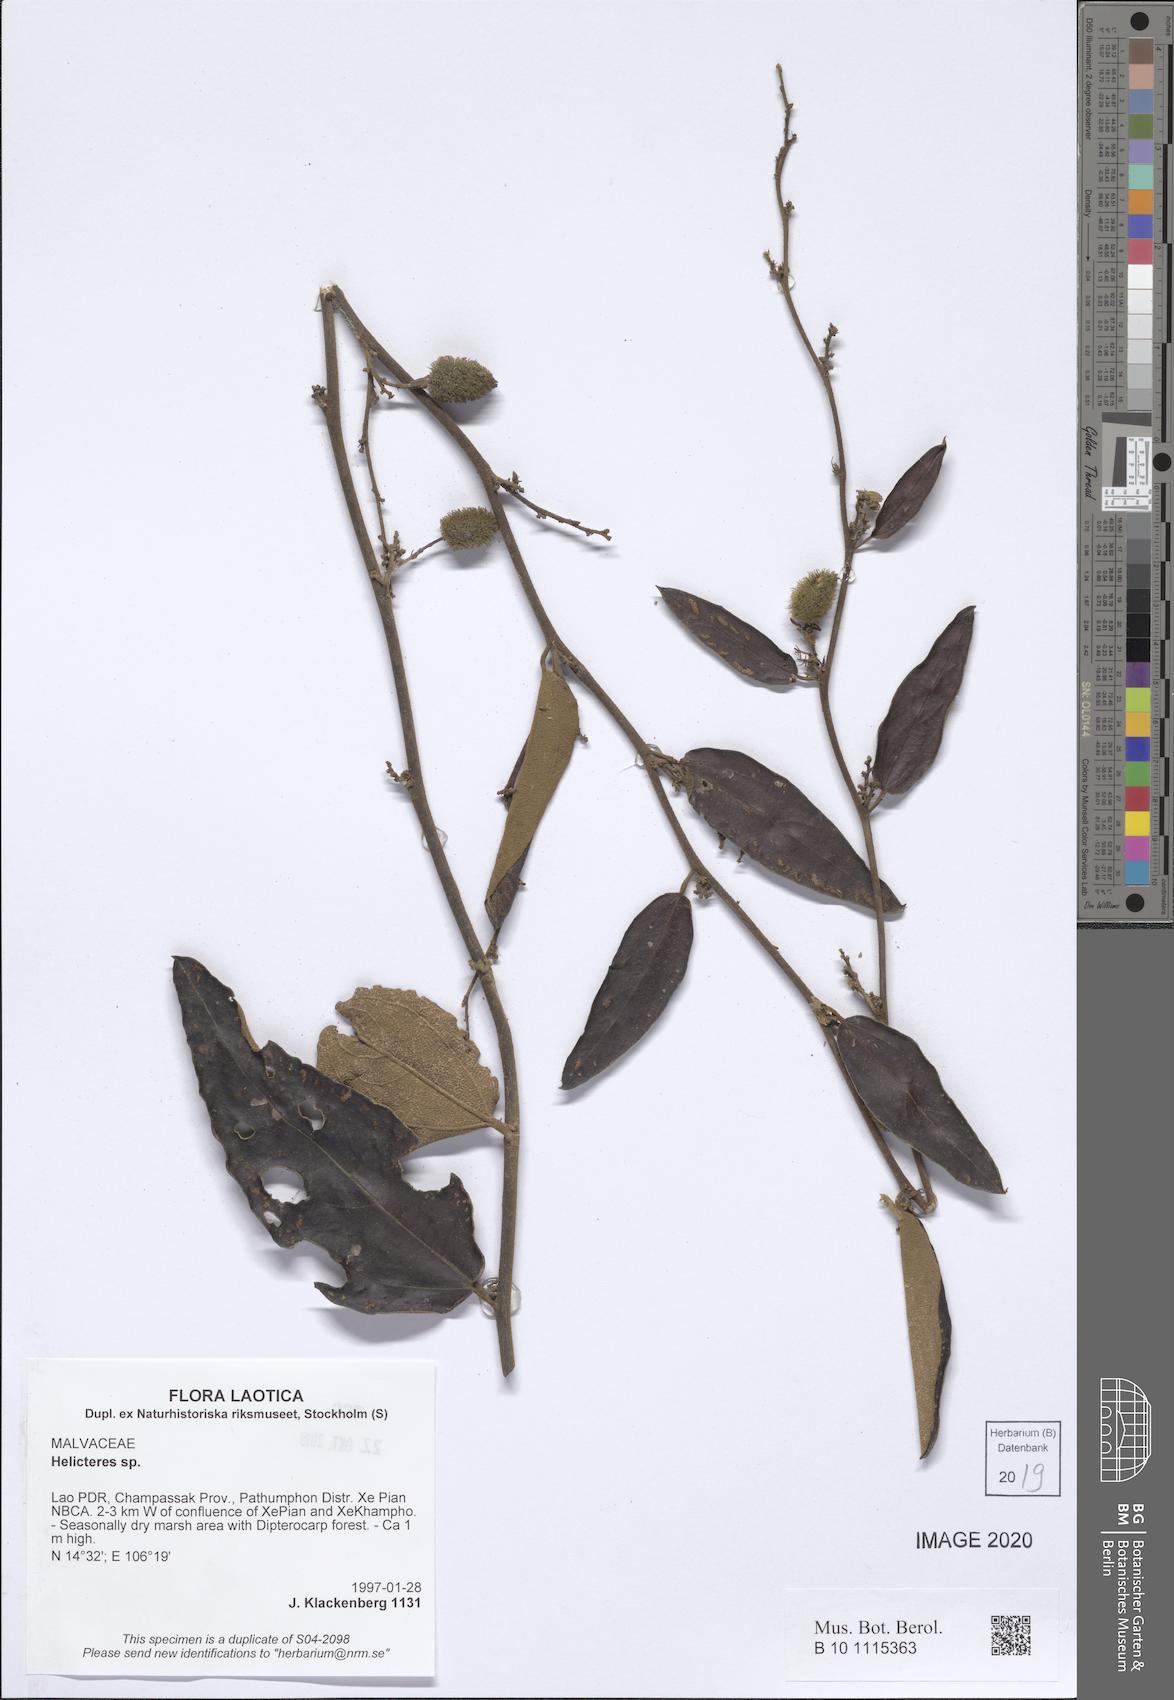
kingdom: Plantae
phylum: Tracheophyta
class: Magnoliopsida
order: Malvales
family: Malvaceae
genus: Helicteres
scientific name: Helicteres
